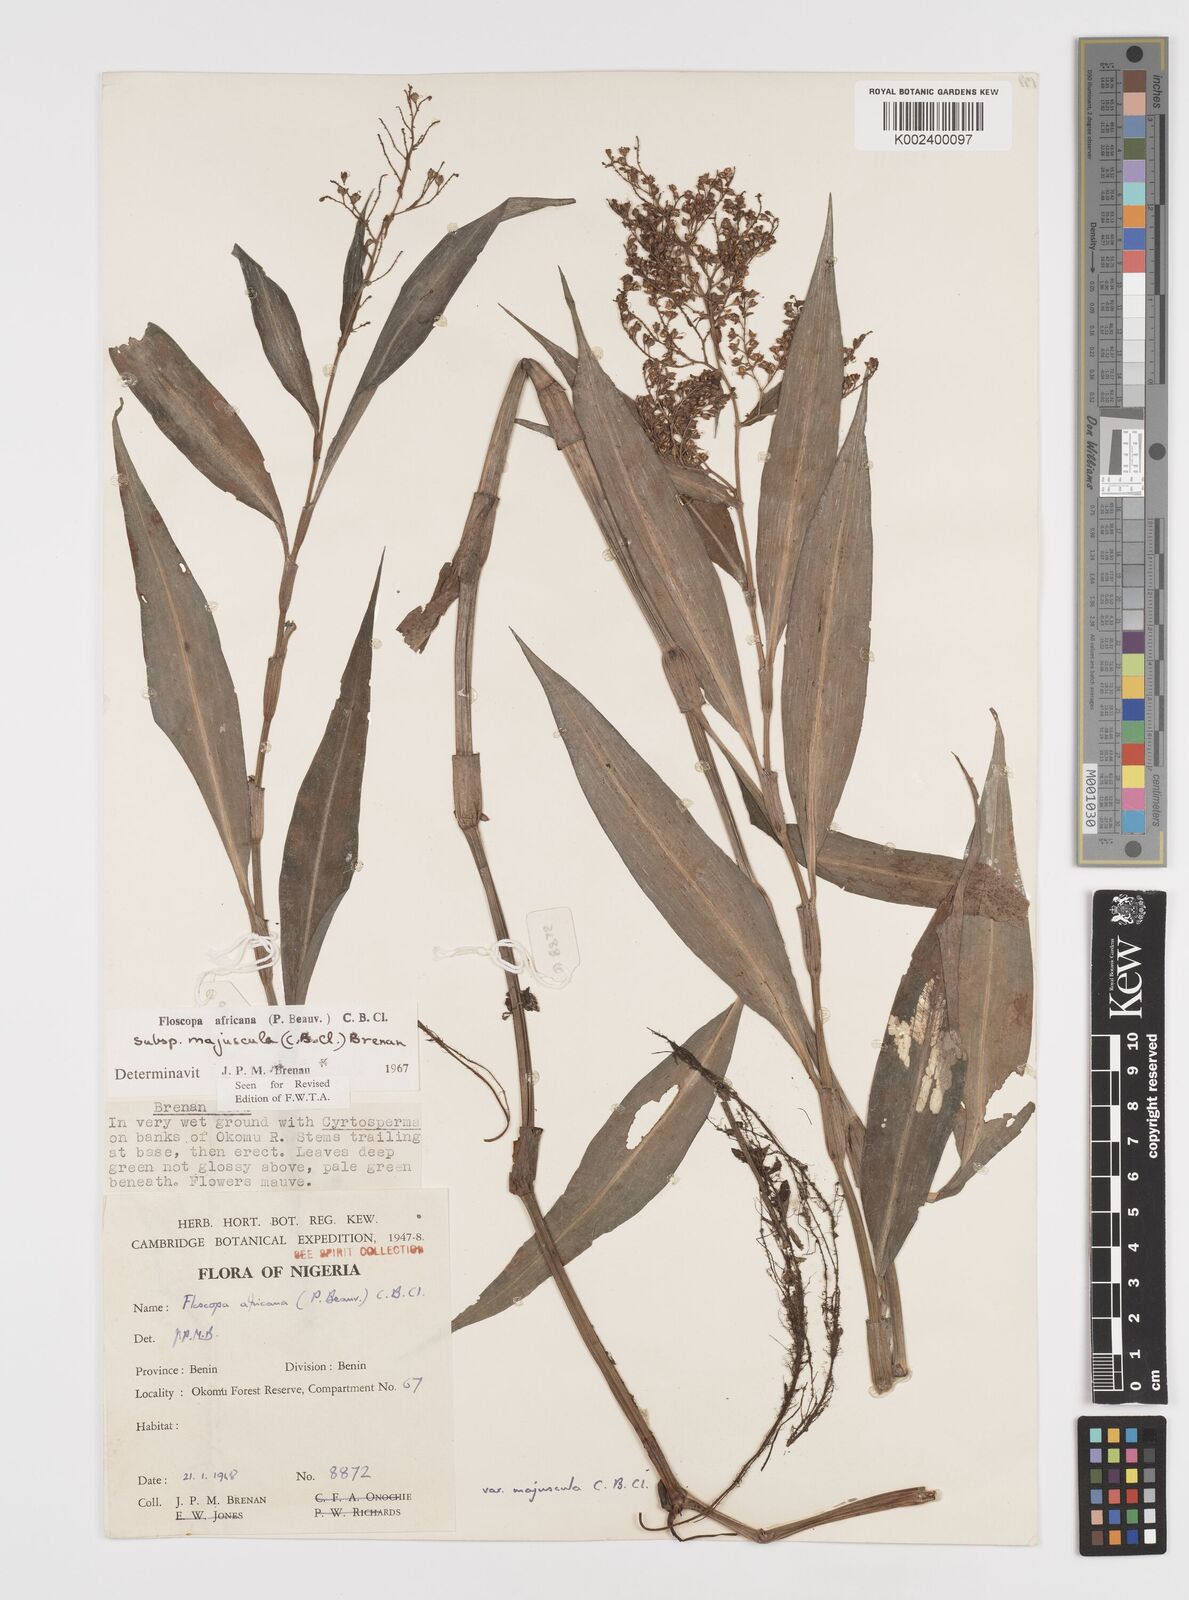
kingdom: Plantae
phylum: Tracheophyta
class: Liliopsida
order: Commelinales
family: Commelinaceae
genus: Floscopa
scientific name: Floscopa africana
